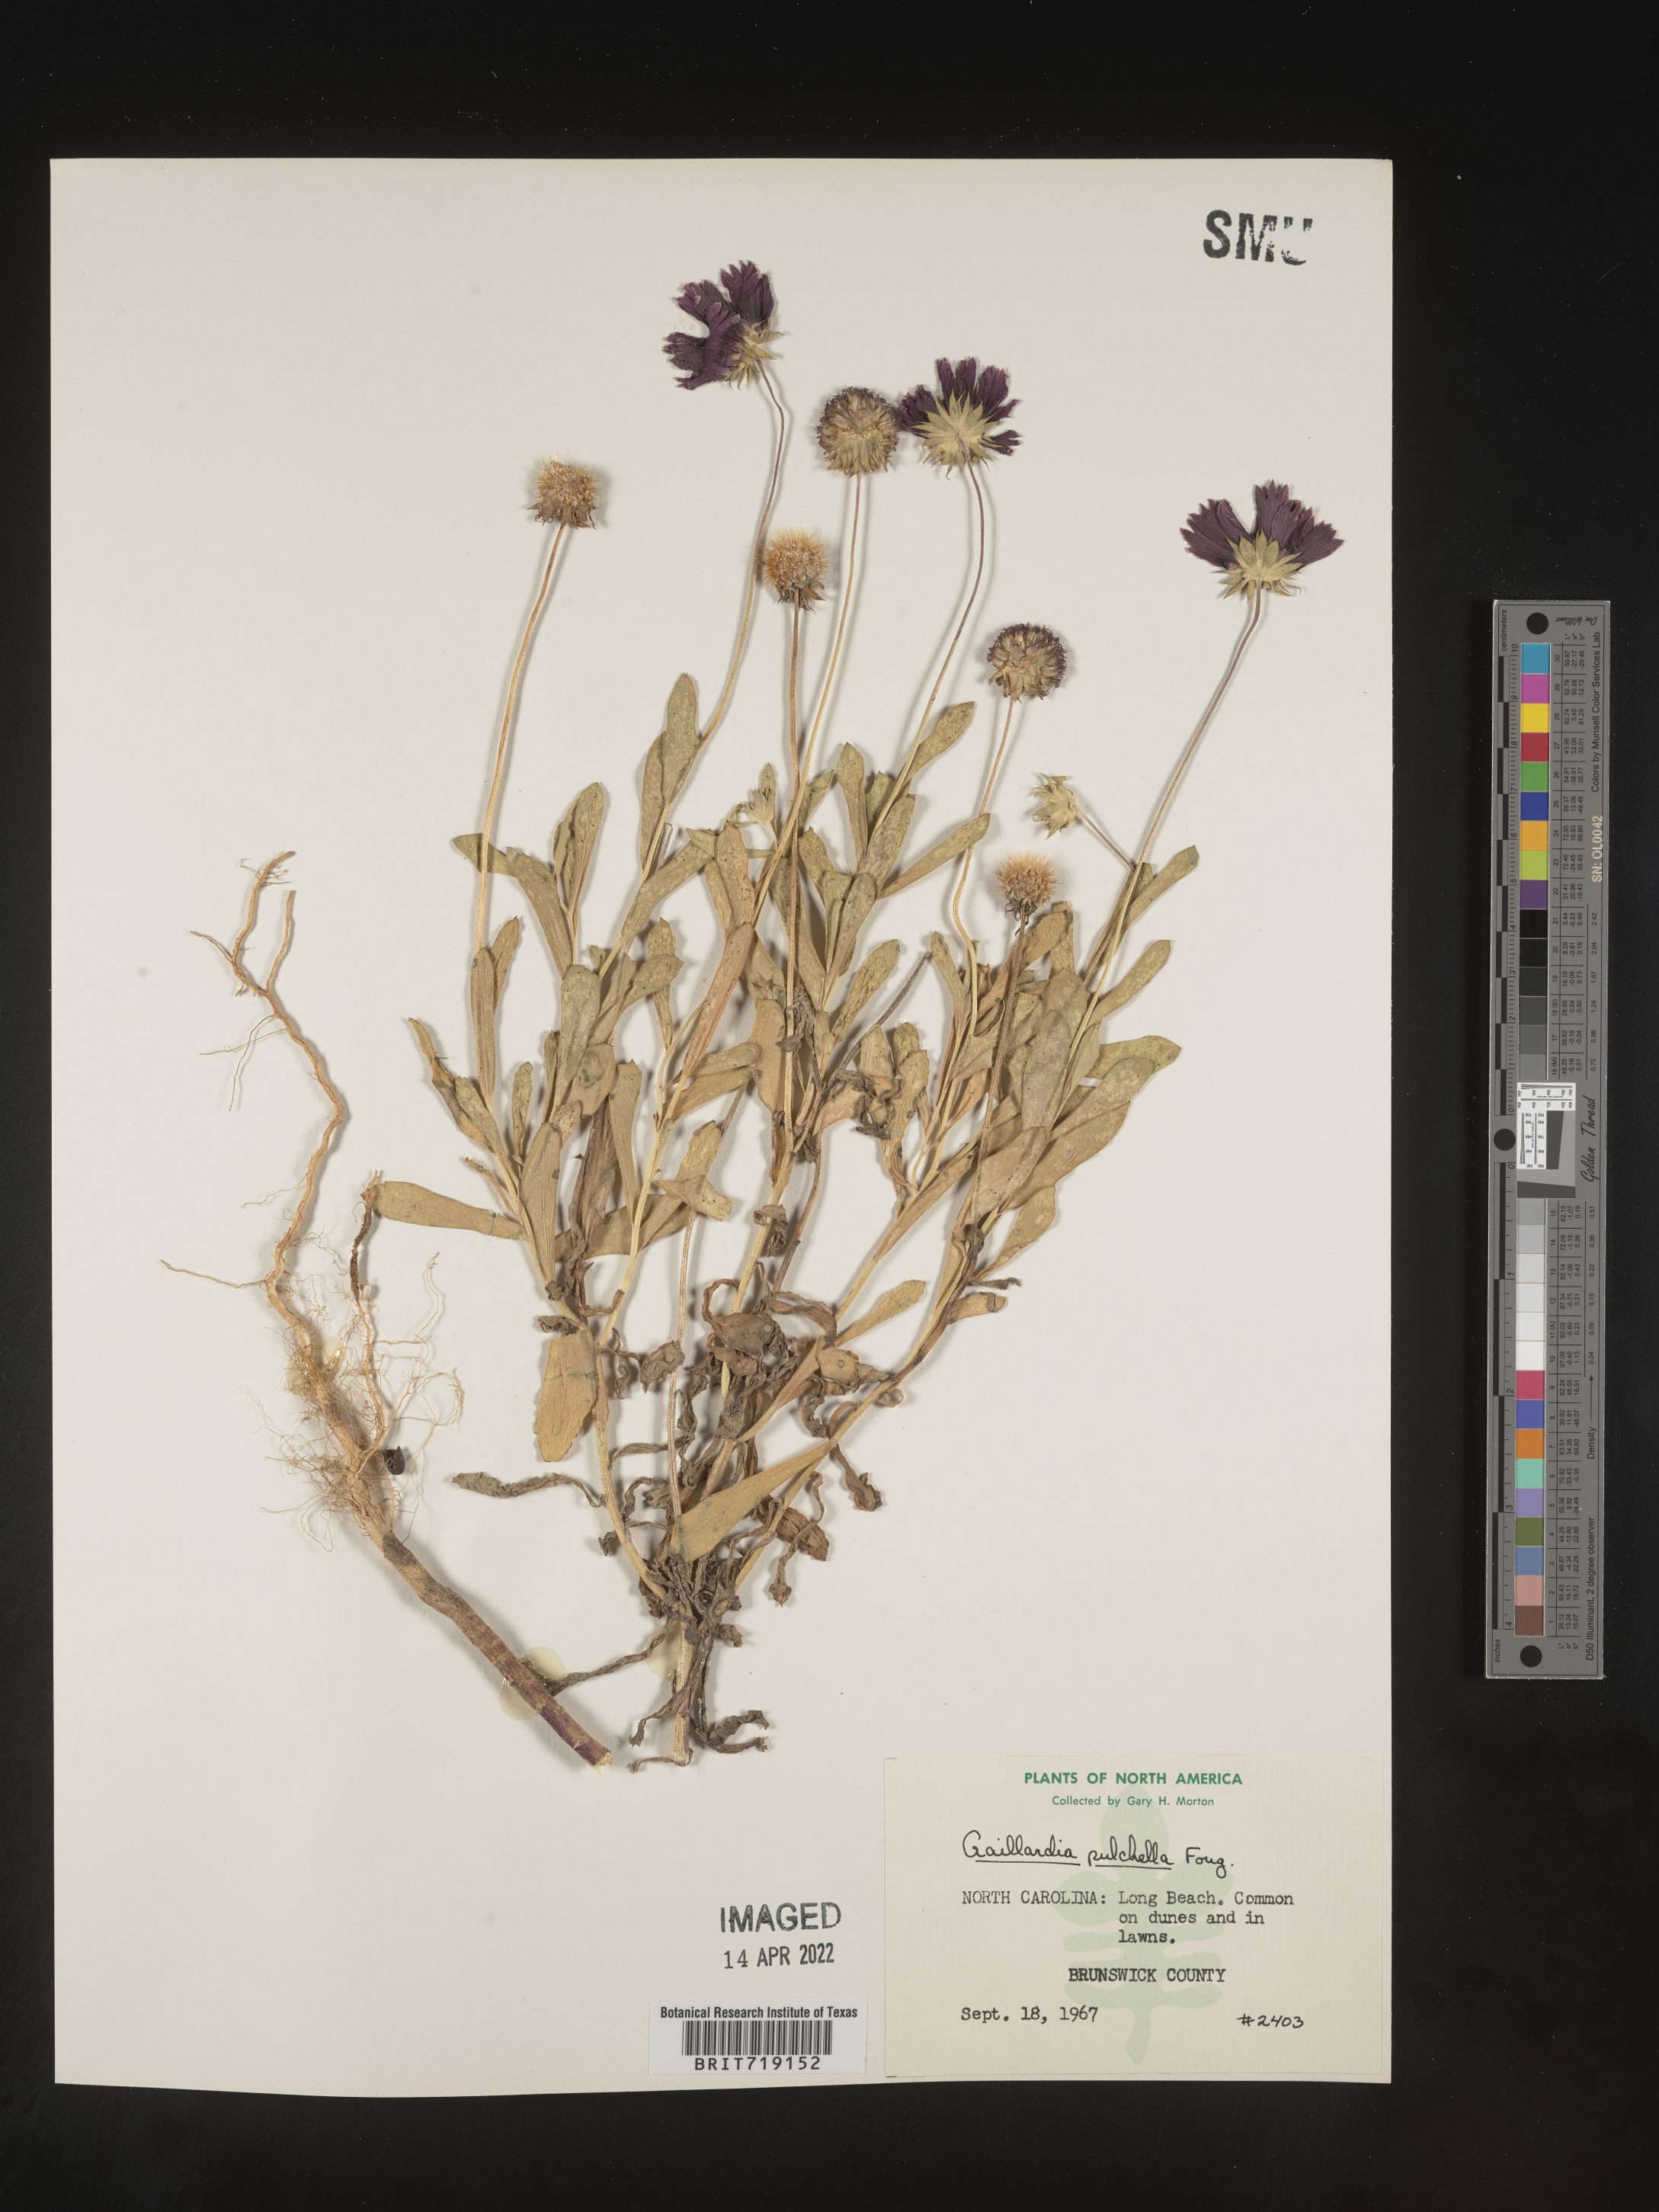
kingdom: Plantae
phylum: Tracheophyta
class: Magnoliopsida
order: Asterales
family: Asteraceae
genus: Gaillardia
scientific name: Gaillardia pulchella
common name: Firewheel
